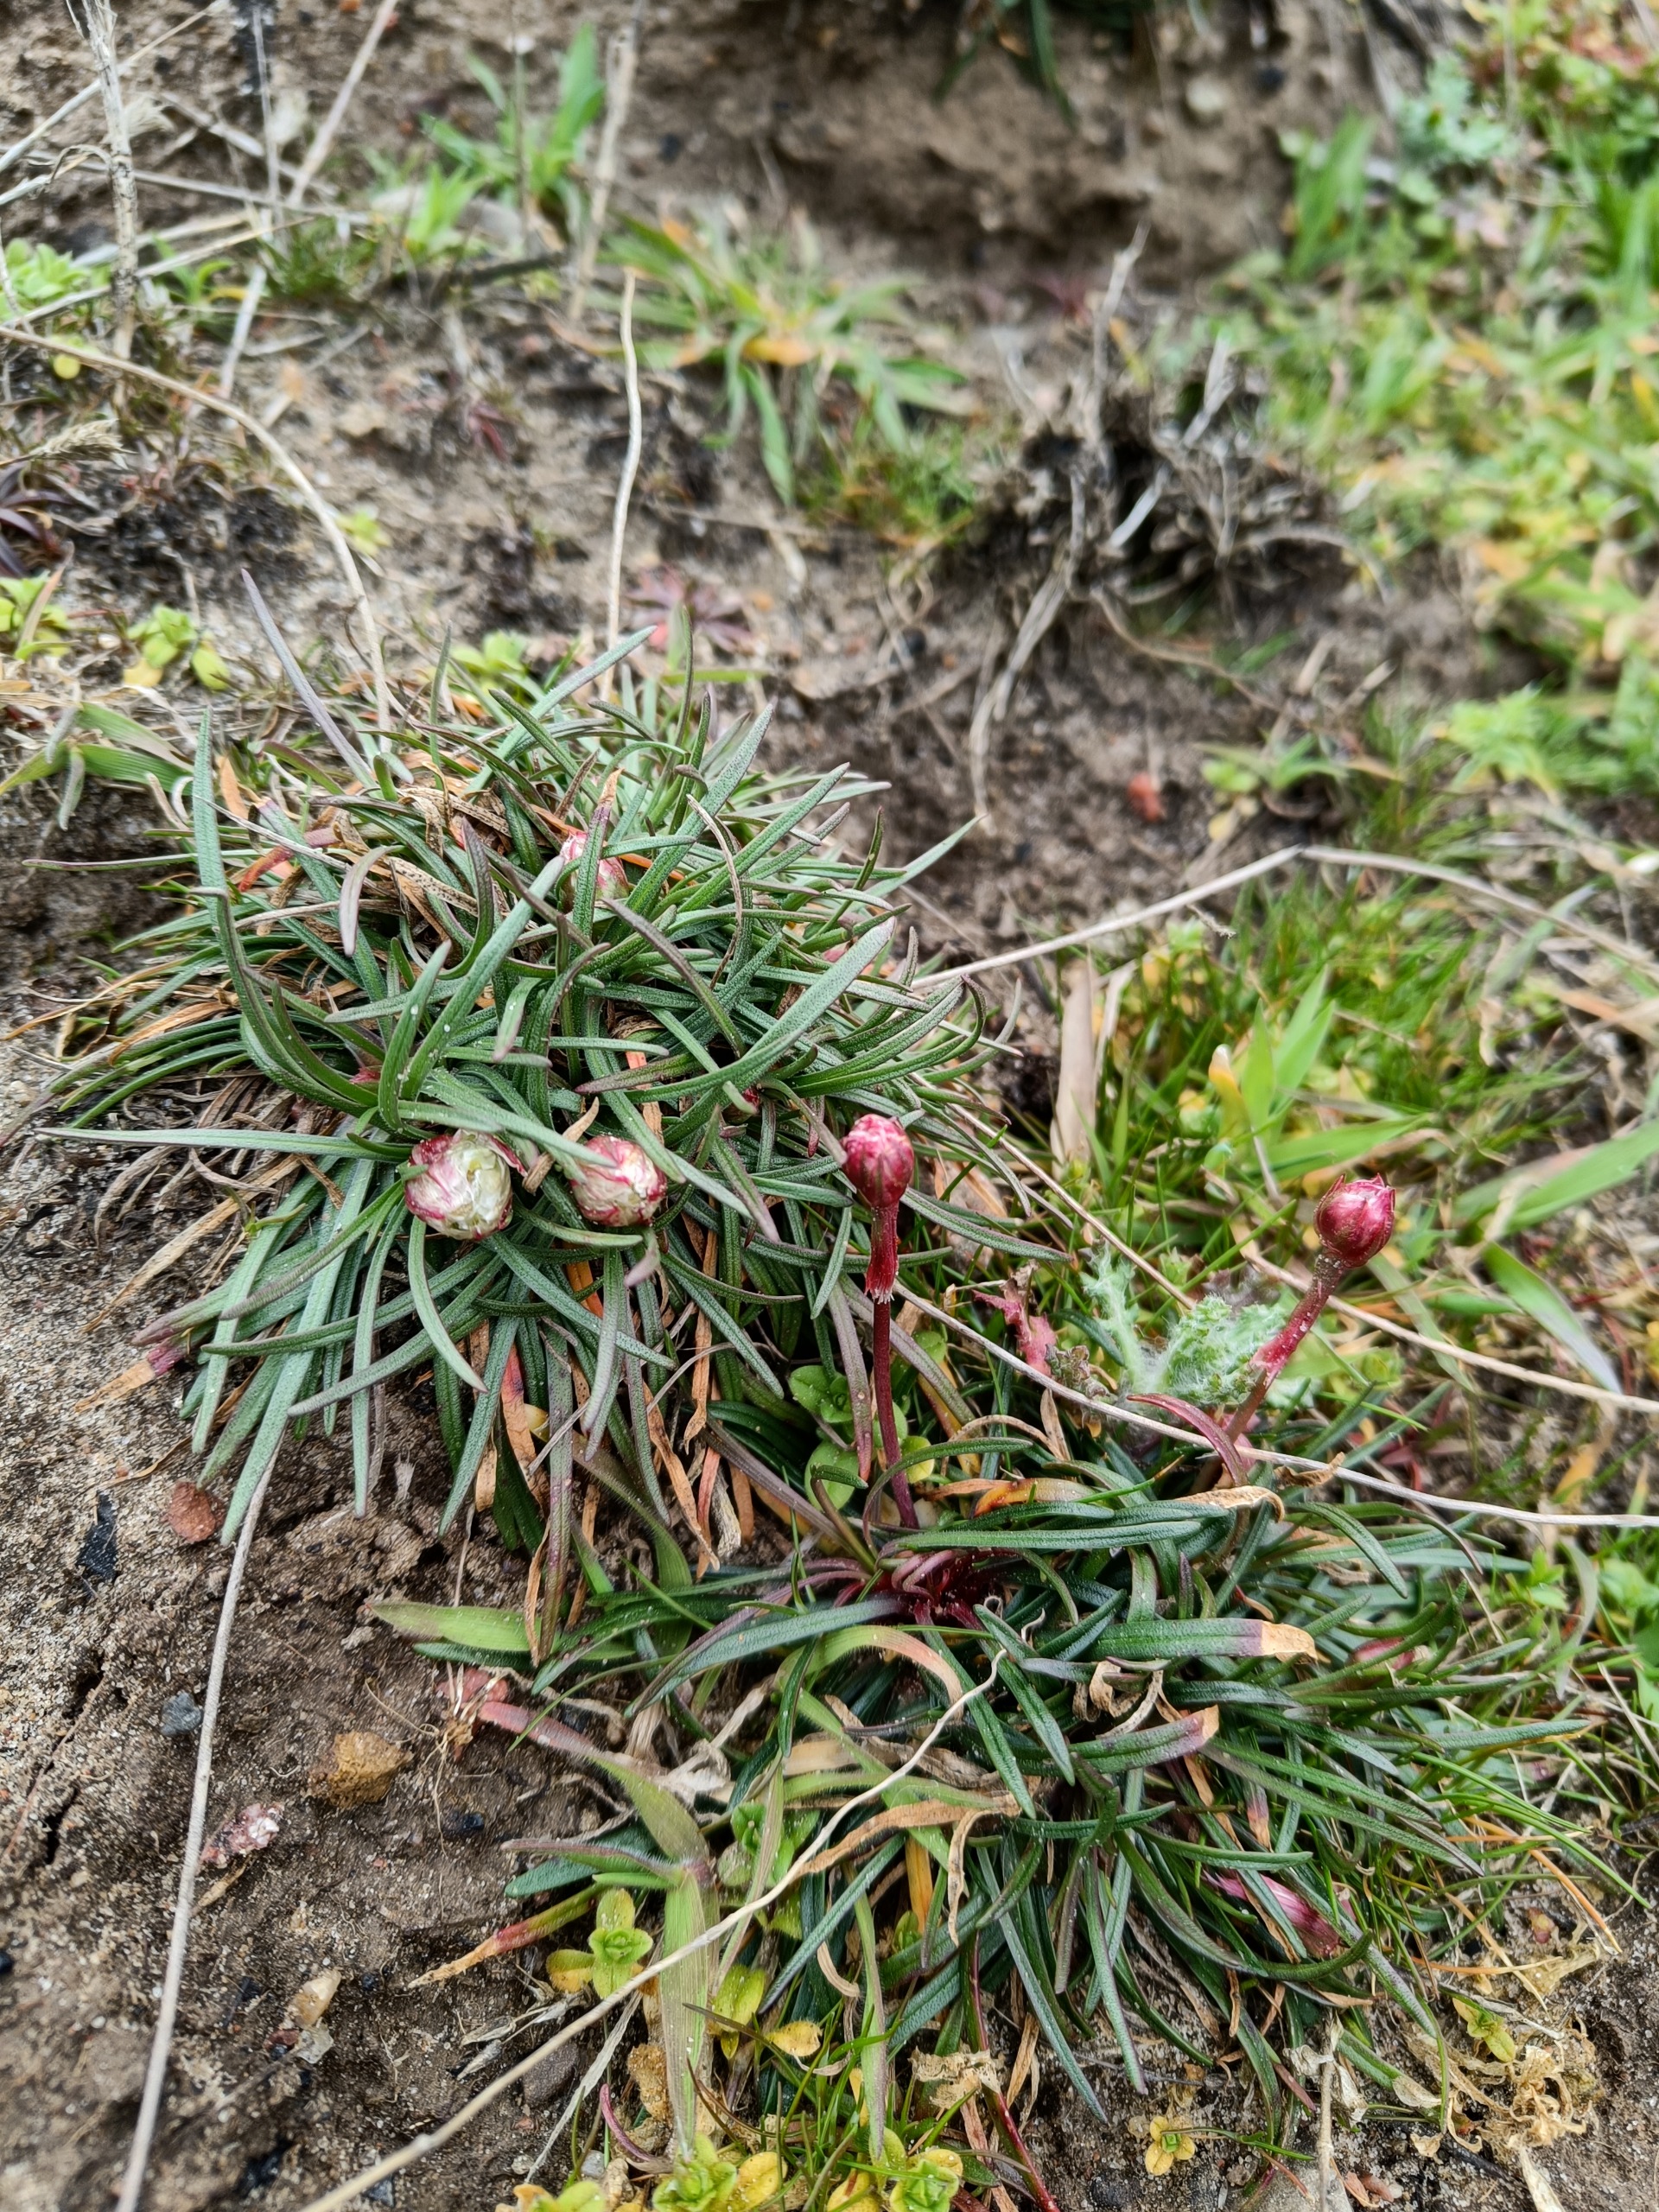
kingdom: Plantae
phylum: Tracheophyta
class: Magnoliopsida
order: Caryophyllales
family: Plumbaginaceae
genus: Armeria
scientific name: Armeria maritima
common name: Engelskgræs
